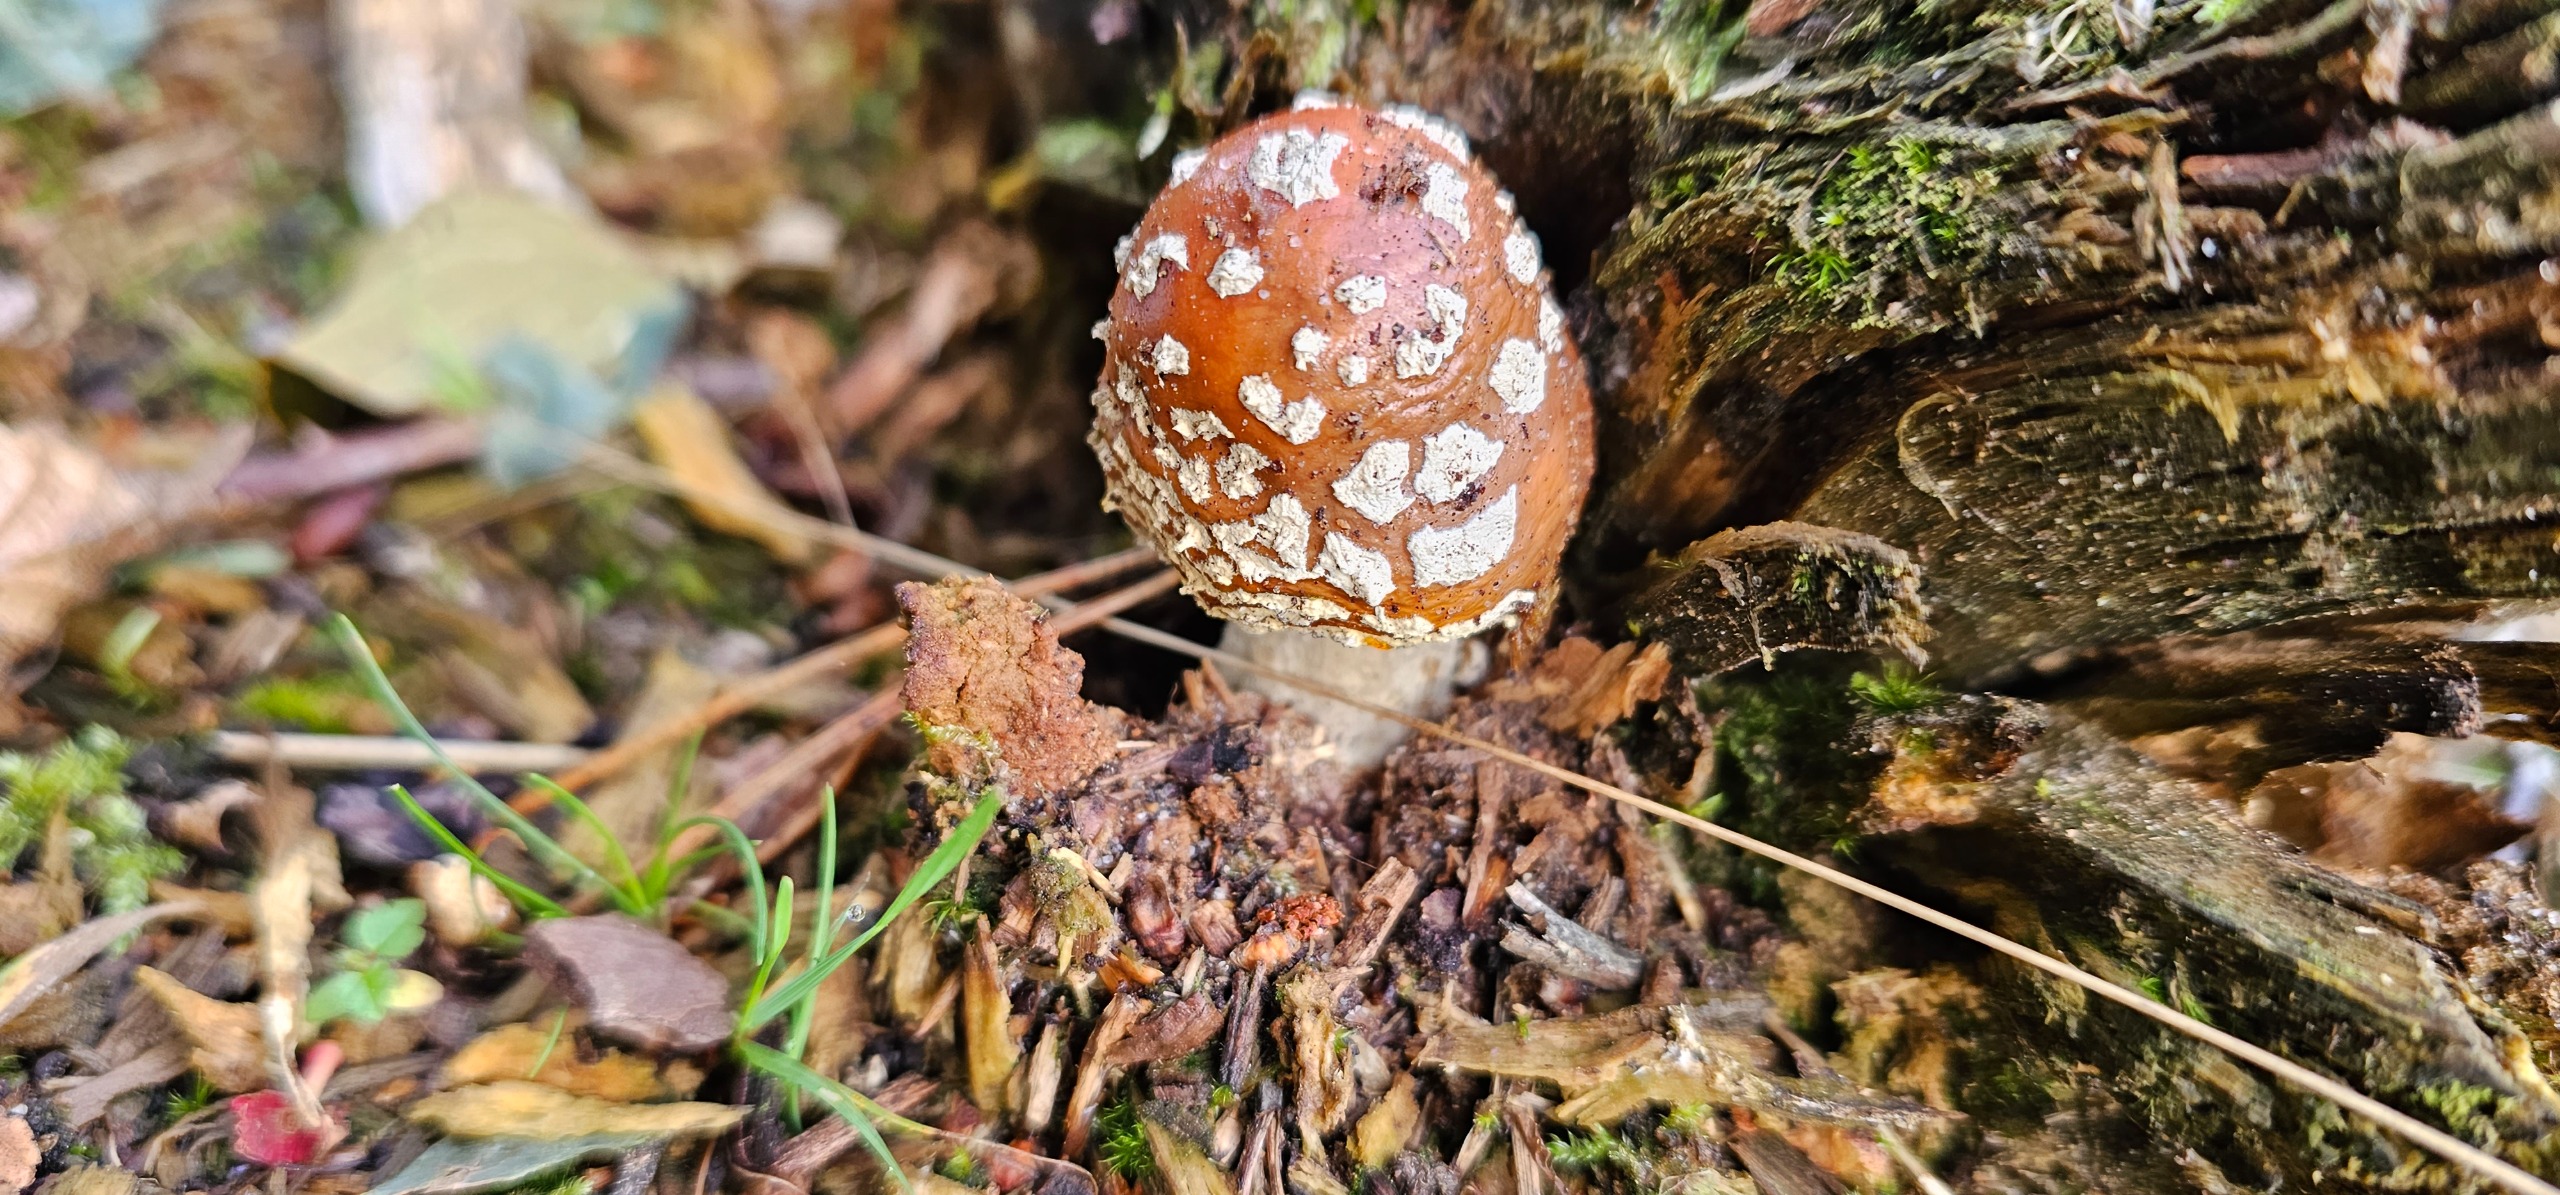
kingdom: Fungi
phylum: Basidiomycota
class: Agaricomycetes
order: Agaricales
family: Amanitaceae
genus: Amanita
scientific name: Amanita muscaria
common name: Rød fluesvamp
